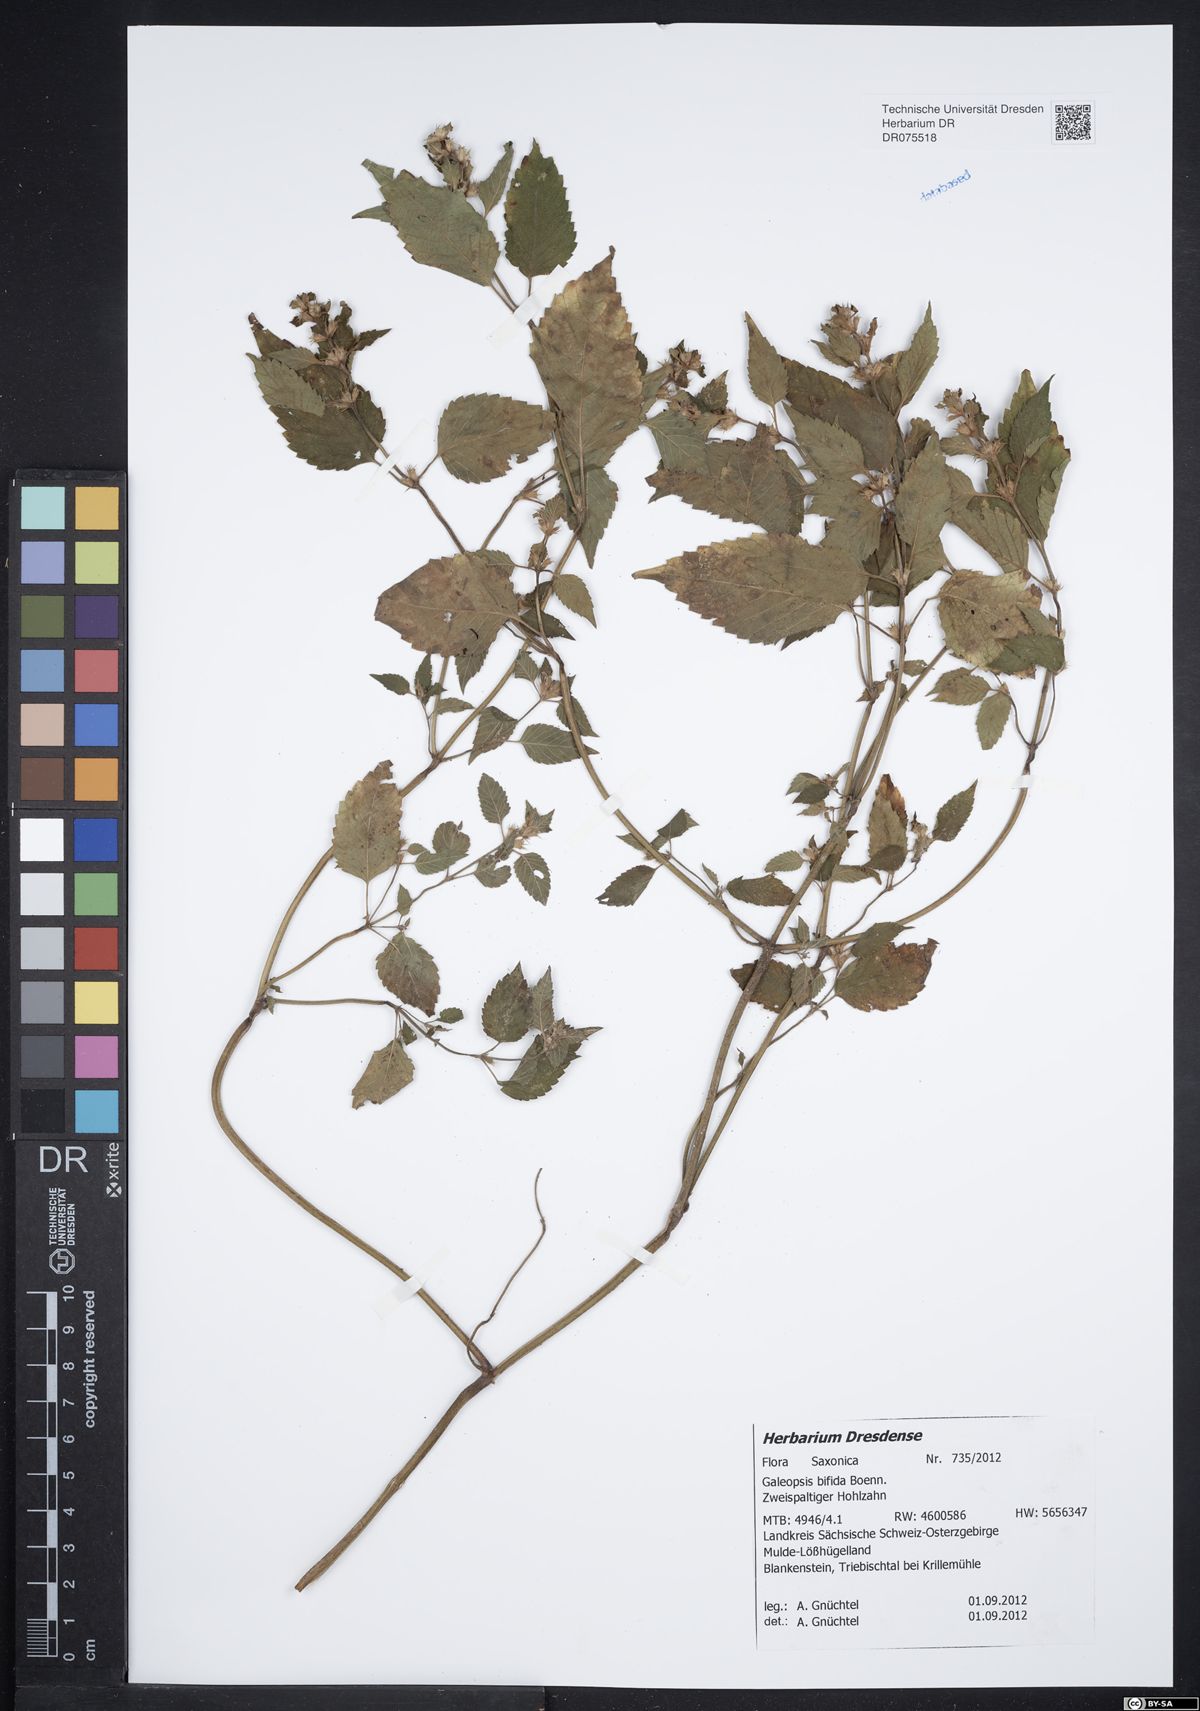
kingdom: Plantae
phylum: Tracheophyta
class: Magnoliopsida
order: Lamiales
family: Lamiaceae
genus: Galeopsis
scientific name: Galeopsis bifida
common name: Bifid hemp-nettle
